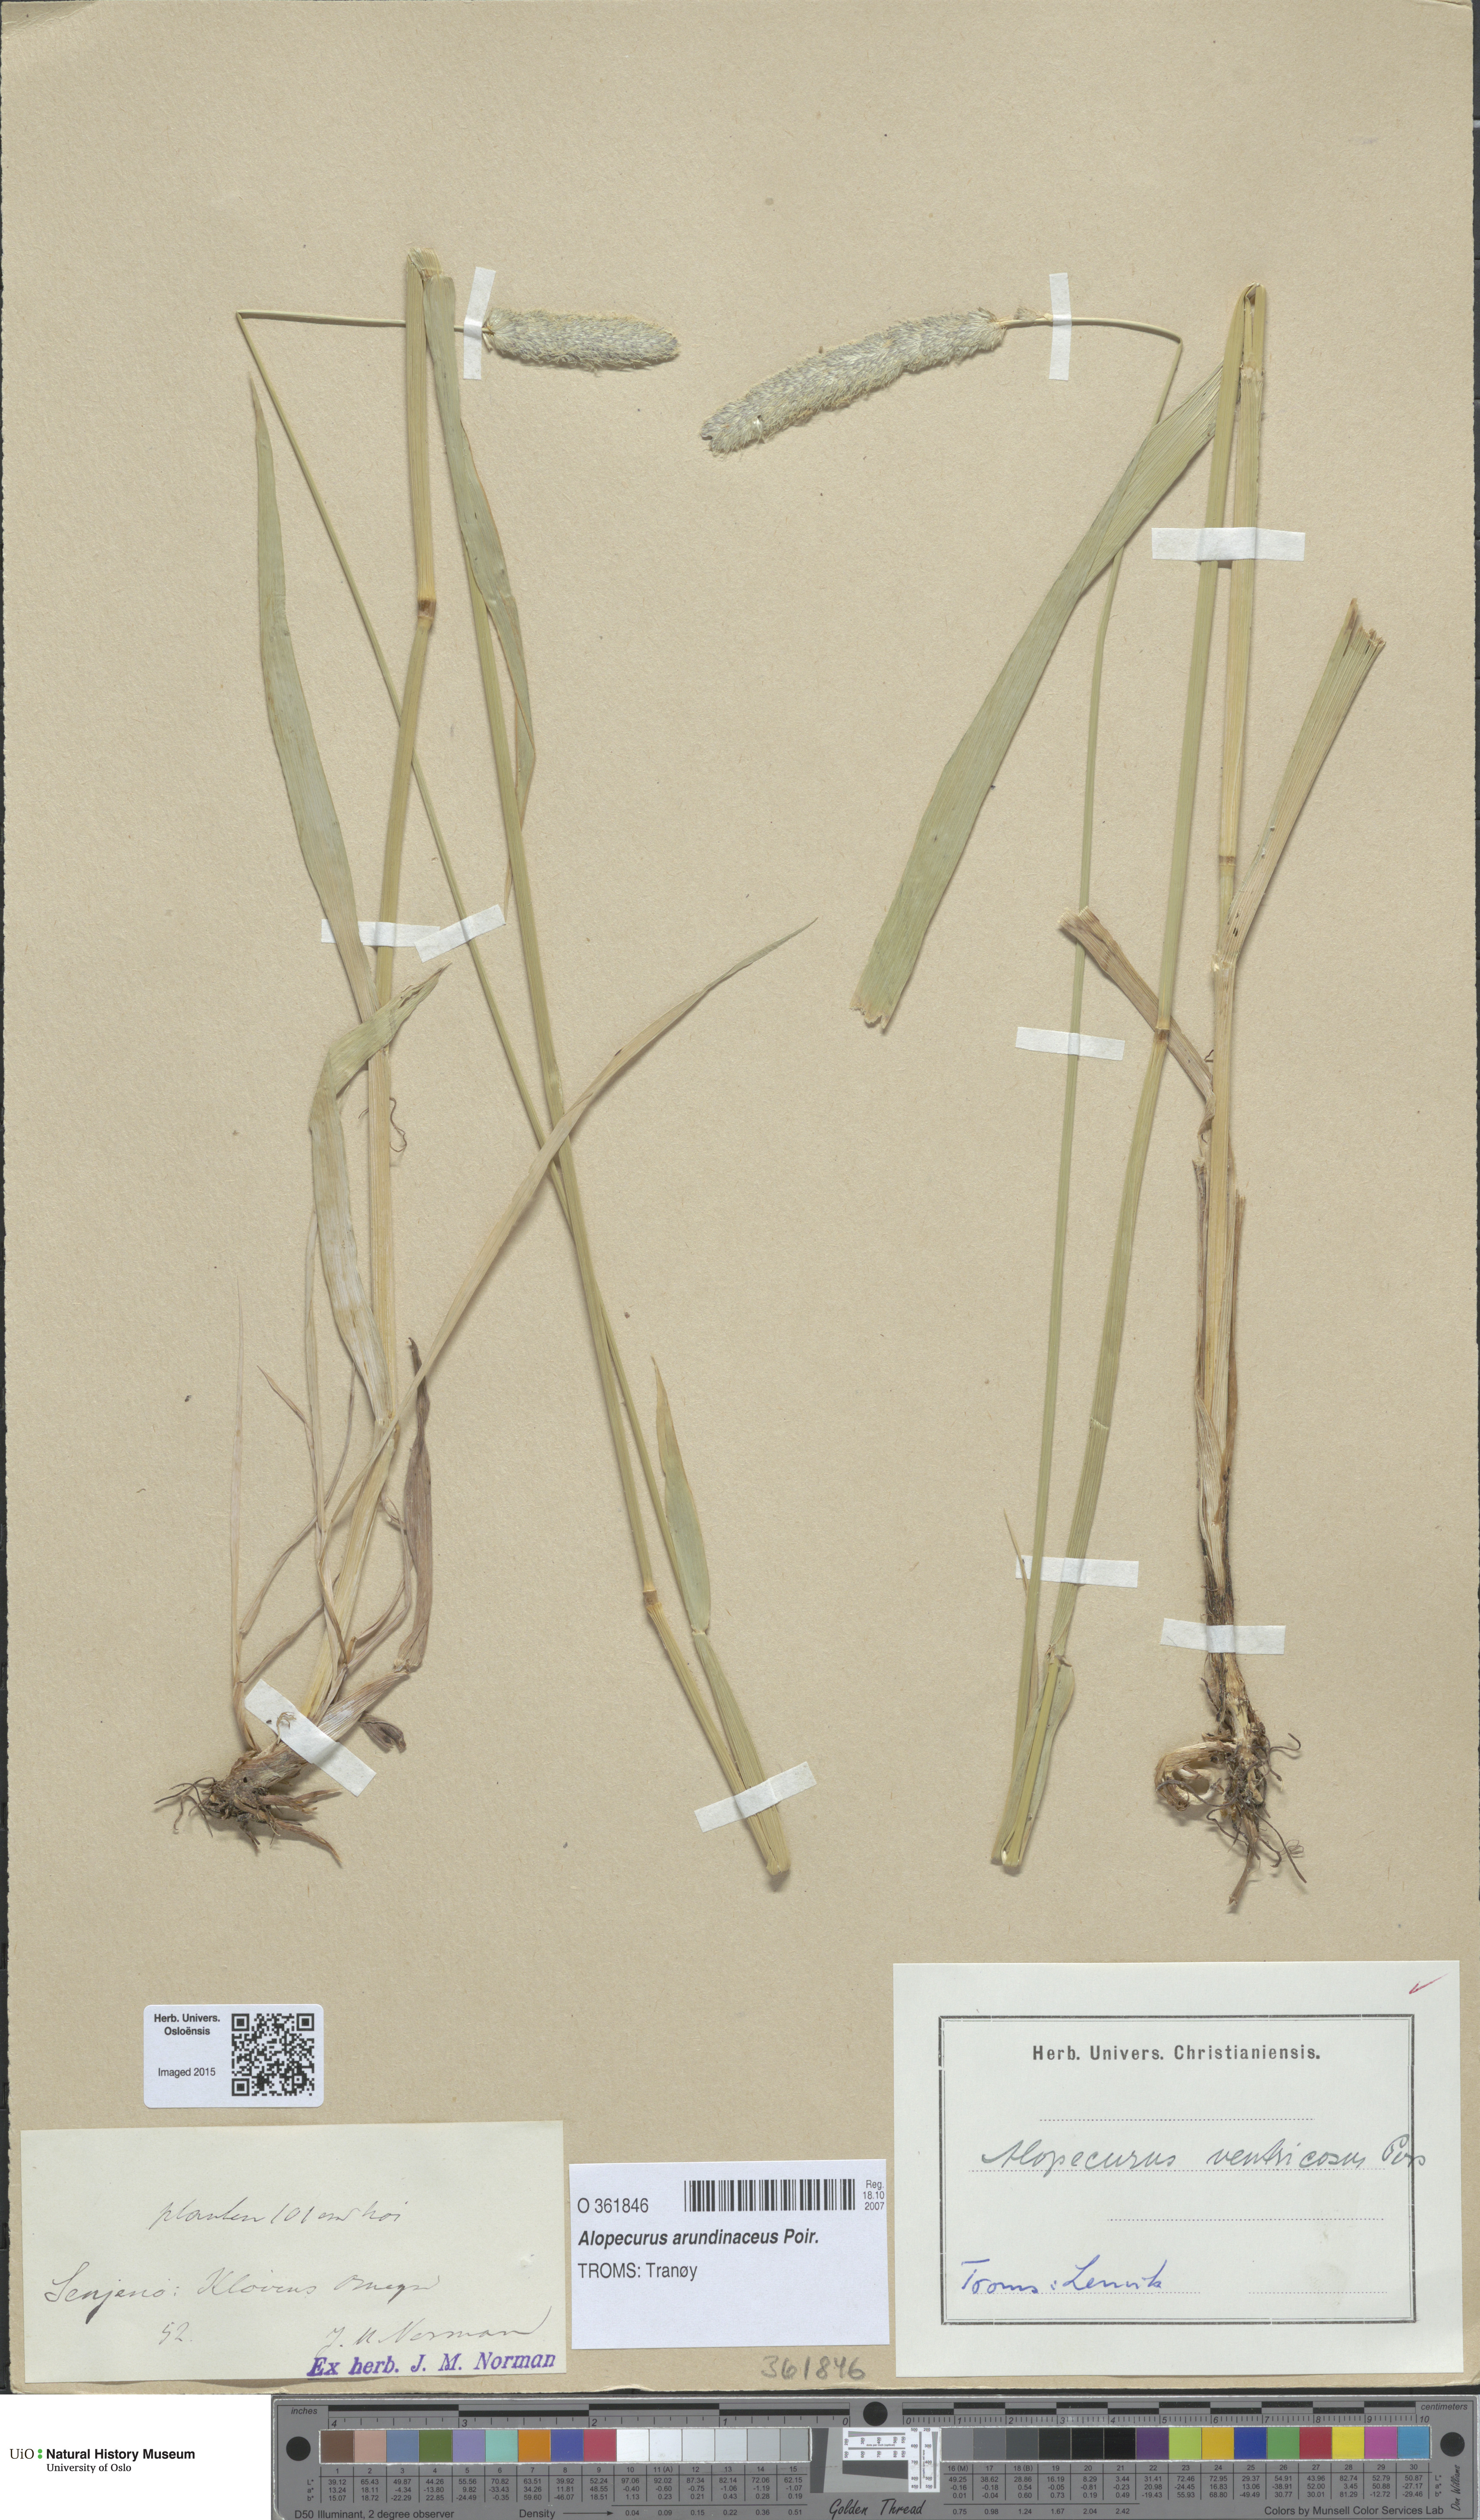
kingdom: Plantae
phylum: Tracheophyta
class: Liliopsida
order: Poales
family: Poaceae
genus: Alopecurus
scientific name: Alopecurus arundinaceus
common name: Creeping meadow foxtail
